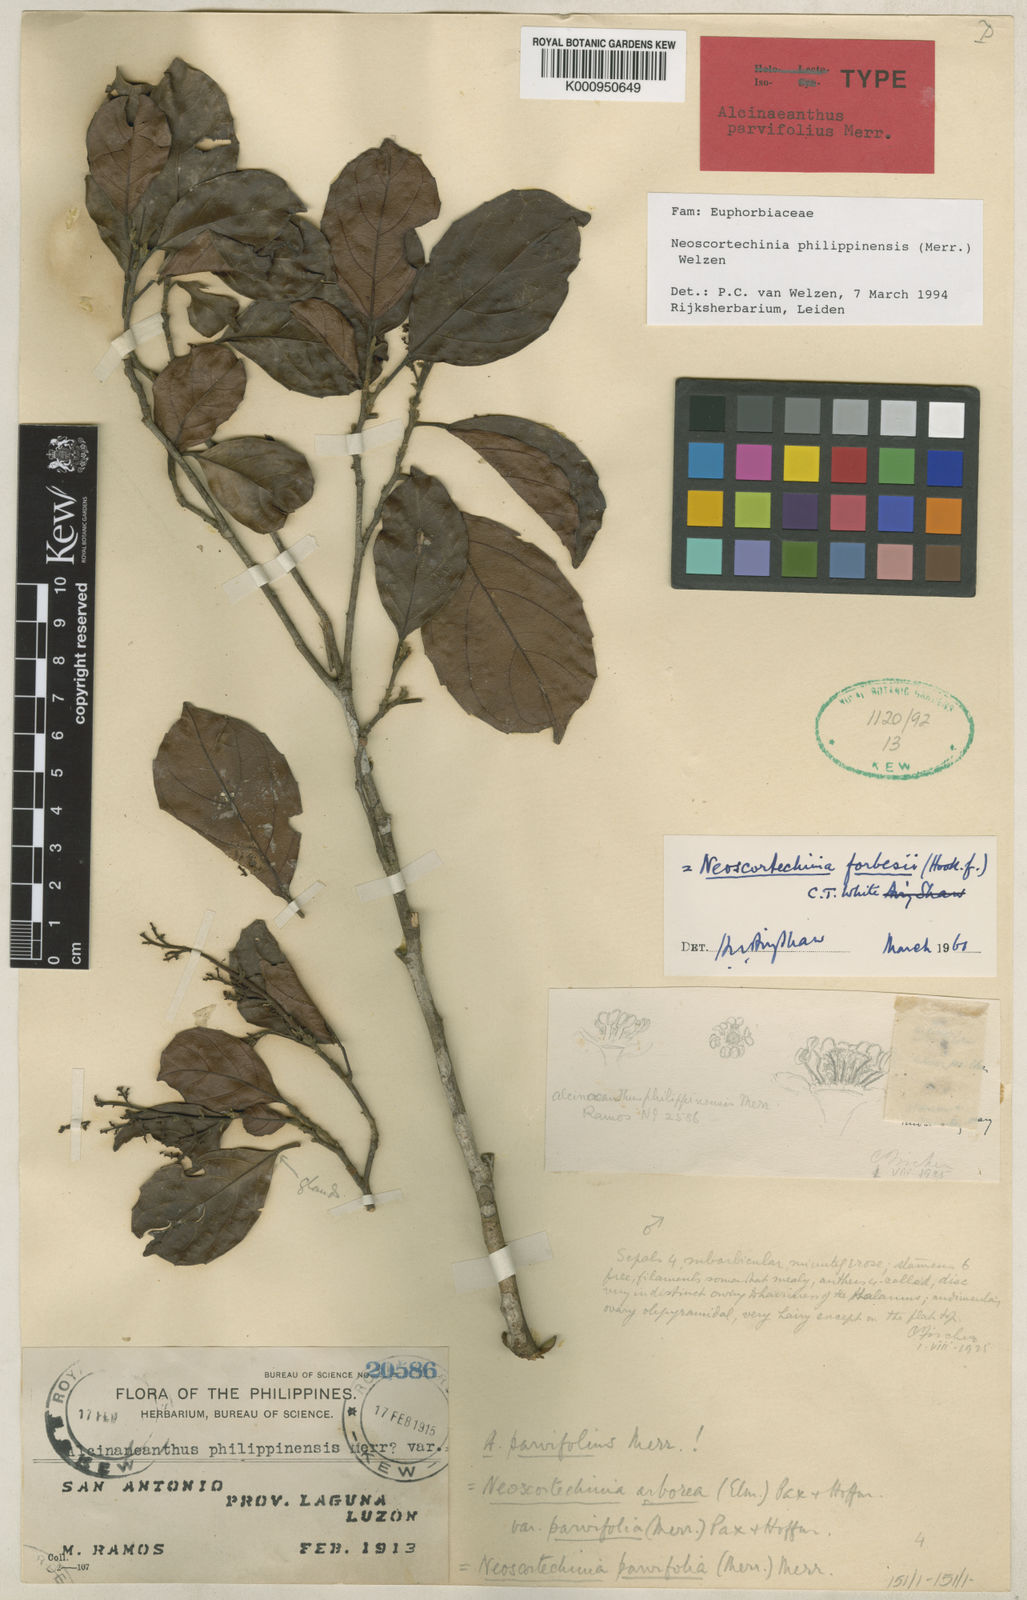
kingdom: Plantae
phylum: Tracheophyta
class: Magnoliopsida
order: Malpighiales
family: Euphorbiaceae
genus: Neoscortechinia
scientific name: Neoscortechinia philippinensis
